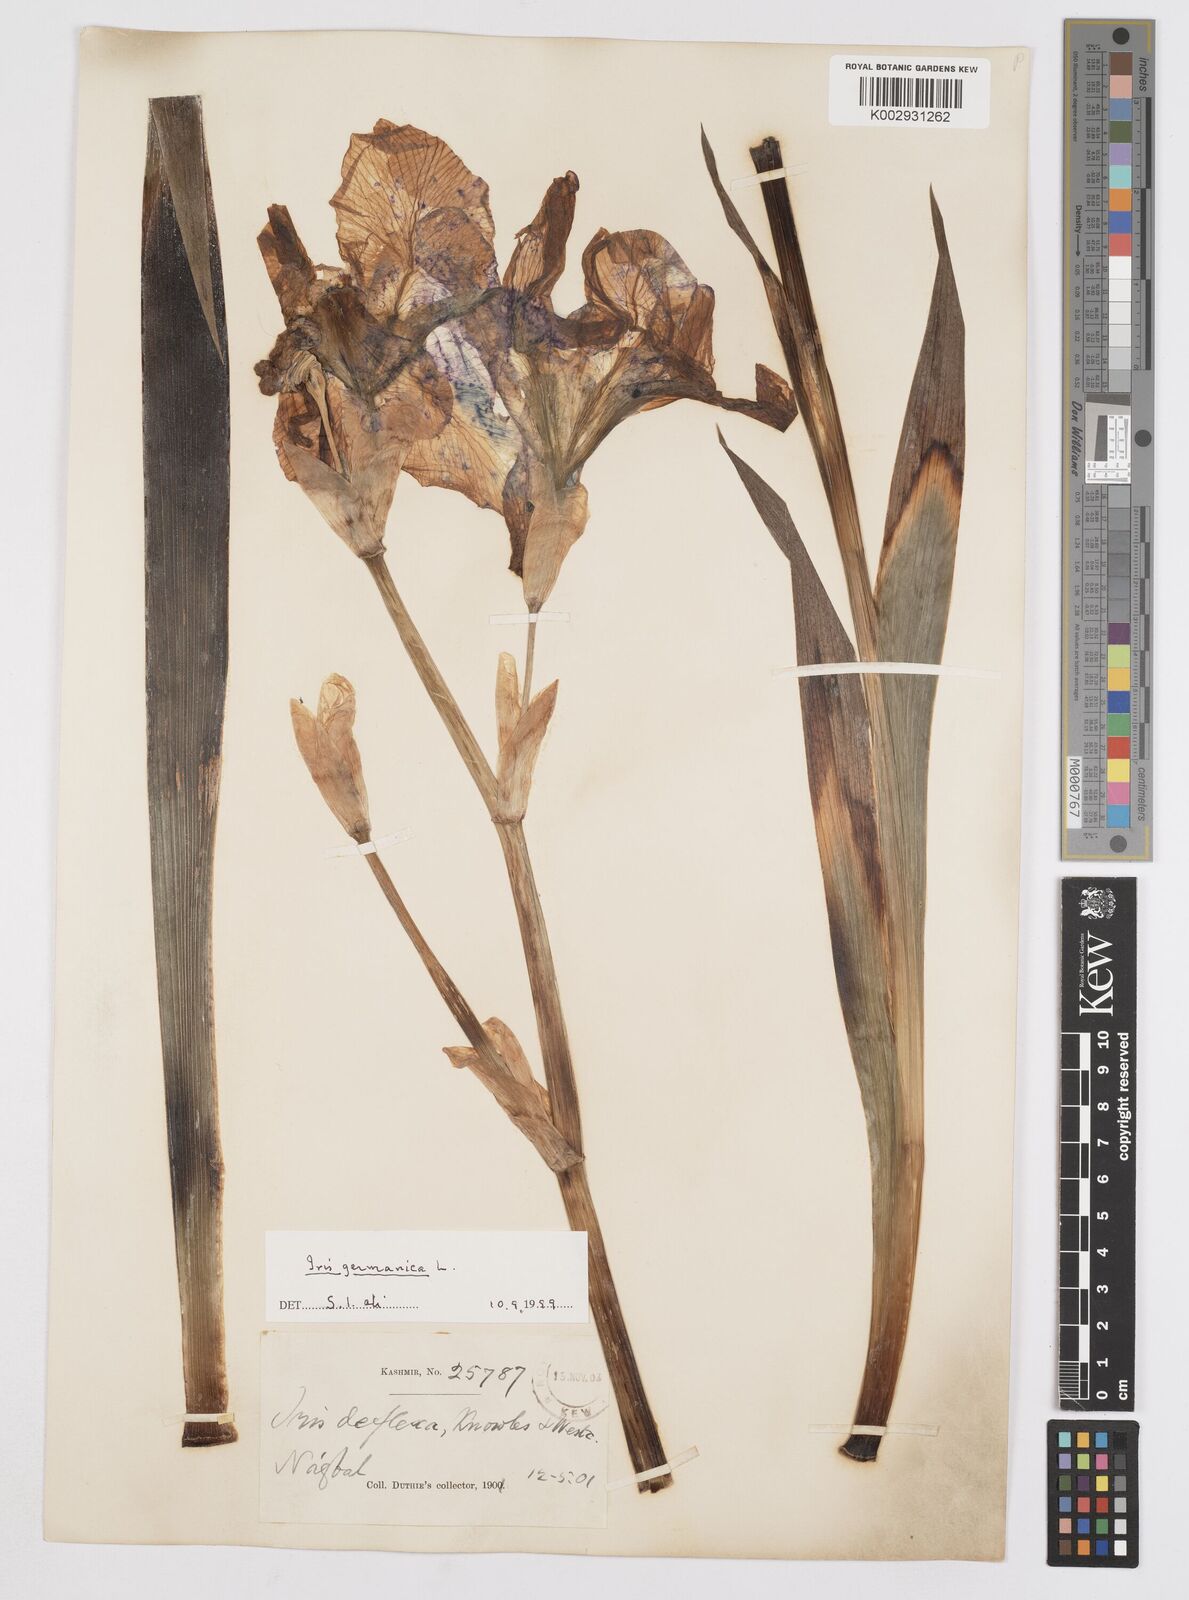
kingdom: Plantae
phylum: Tracheophyta
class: Liliopsida
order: Asparagales
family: Iridaceae
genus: Iris
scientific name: Iris germanica
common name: German iris
